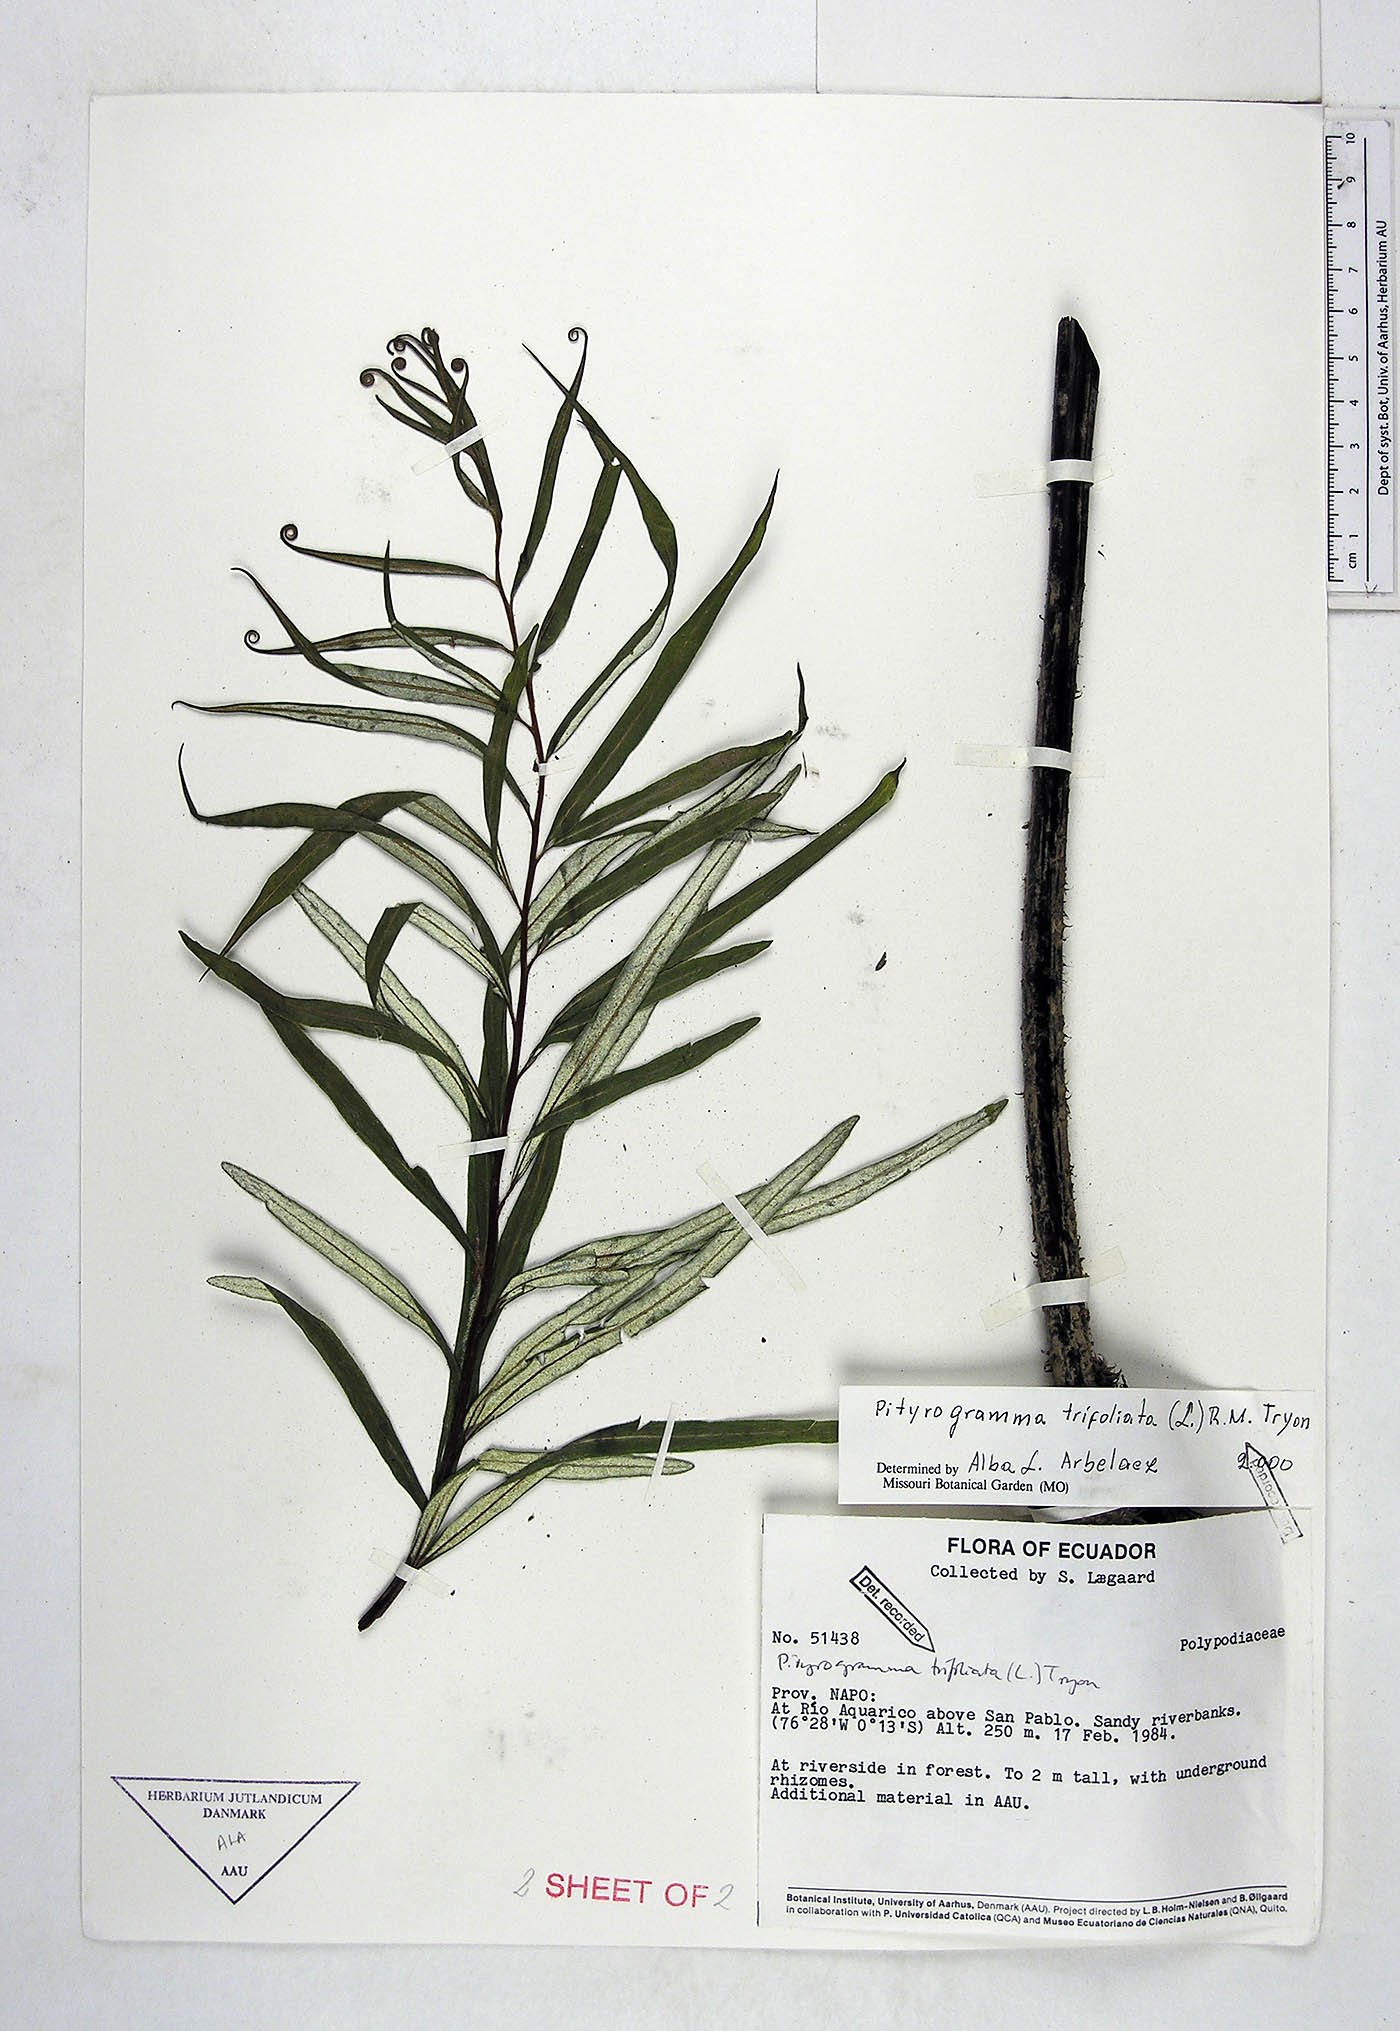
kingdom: Plantae
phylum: Tracheophyta
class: Polypodiopsida
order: Polypodiales
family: Pteridaceae
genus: Pityrogramma
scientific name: Pityrogramma trifoliata
